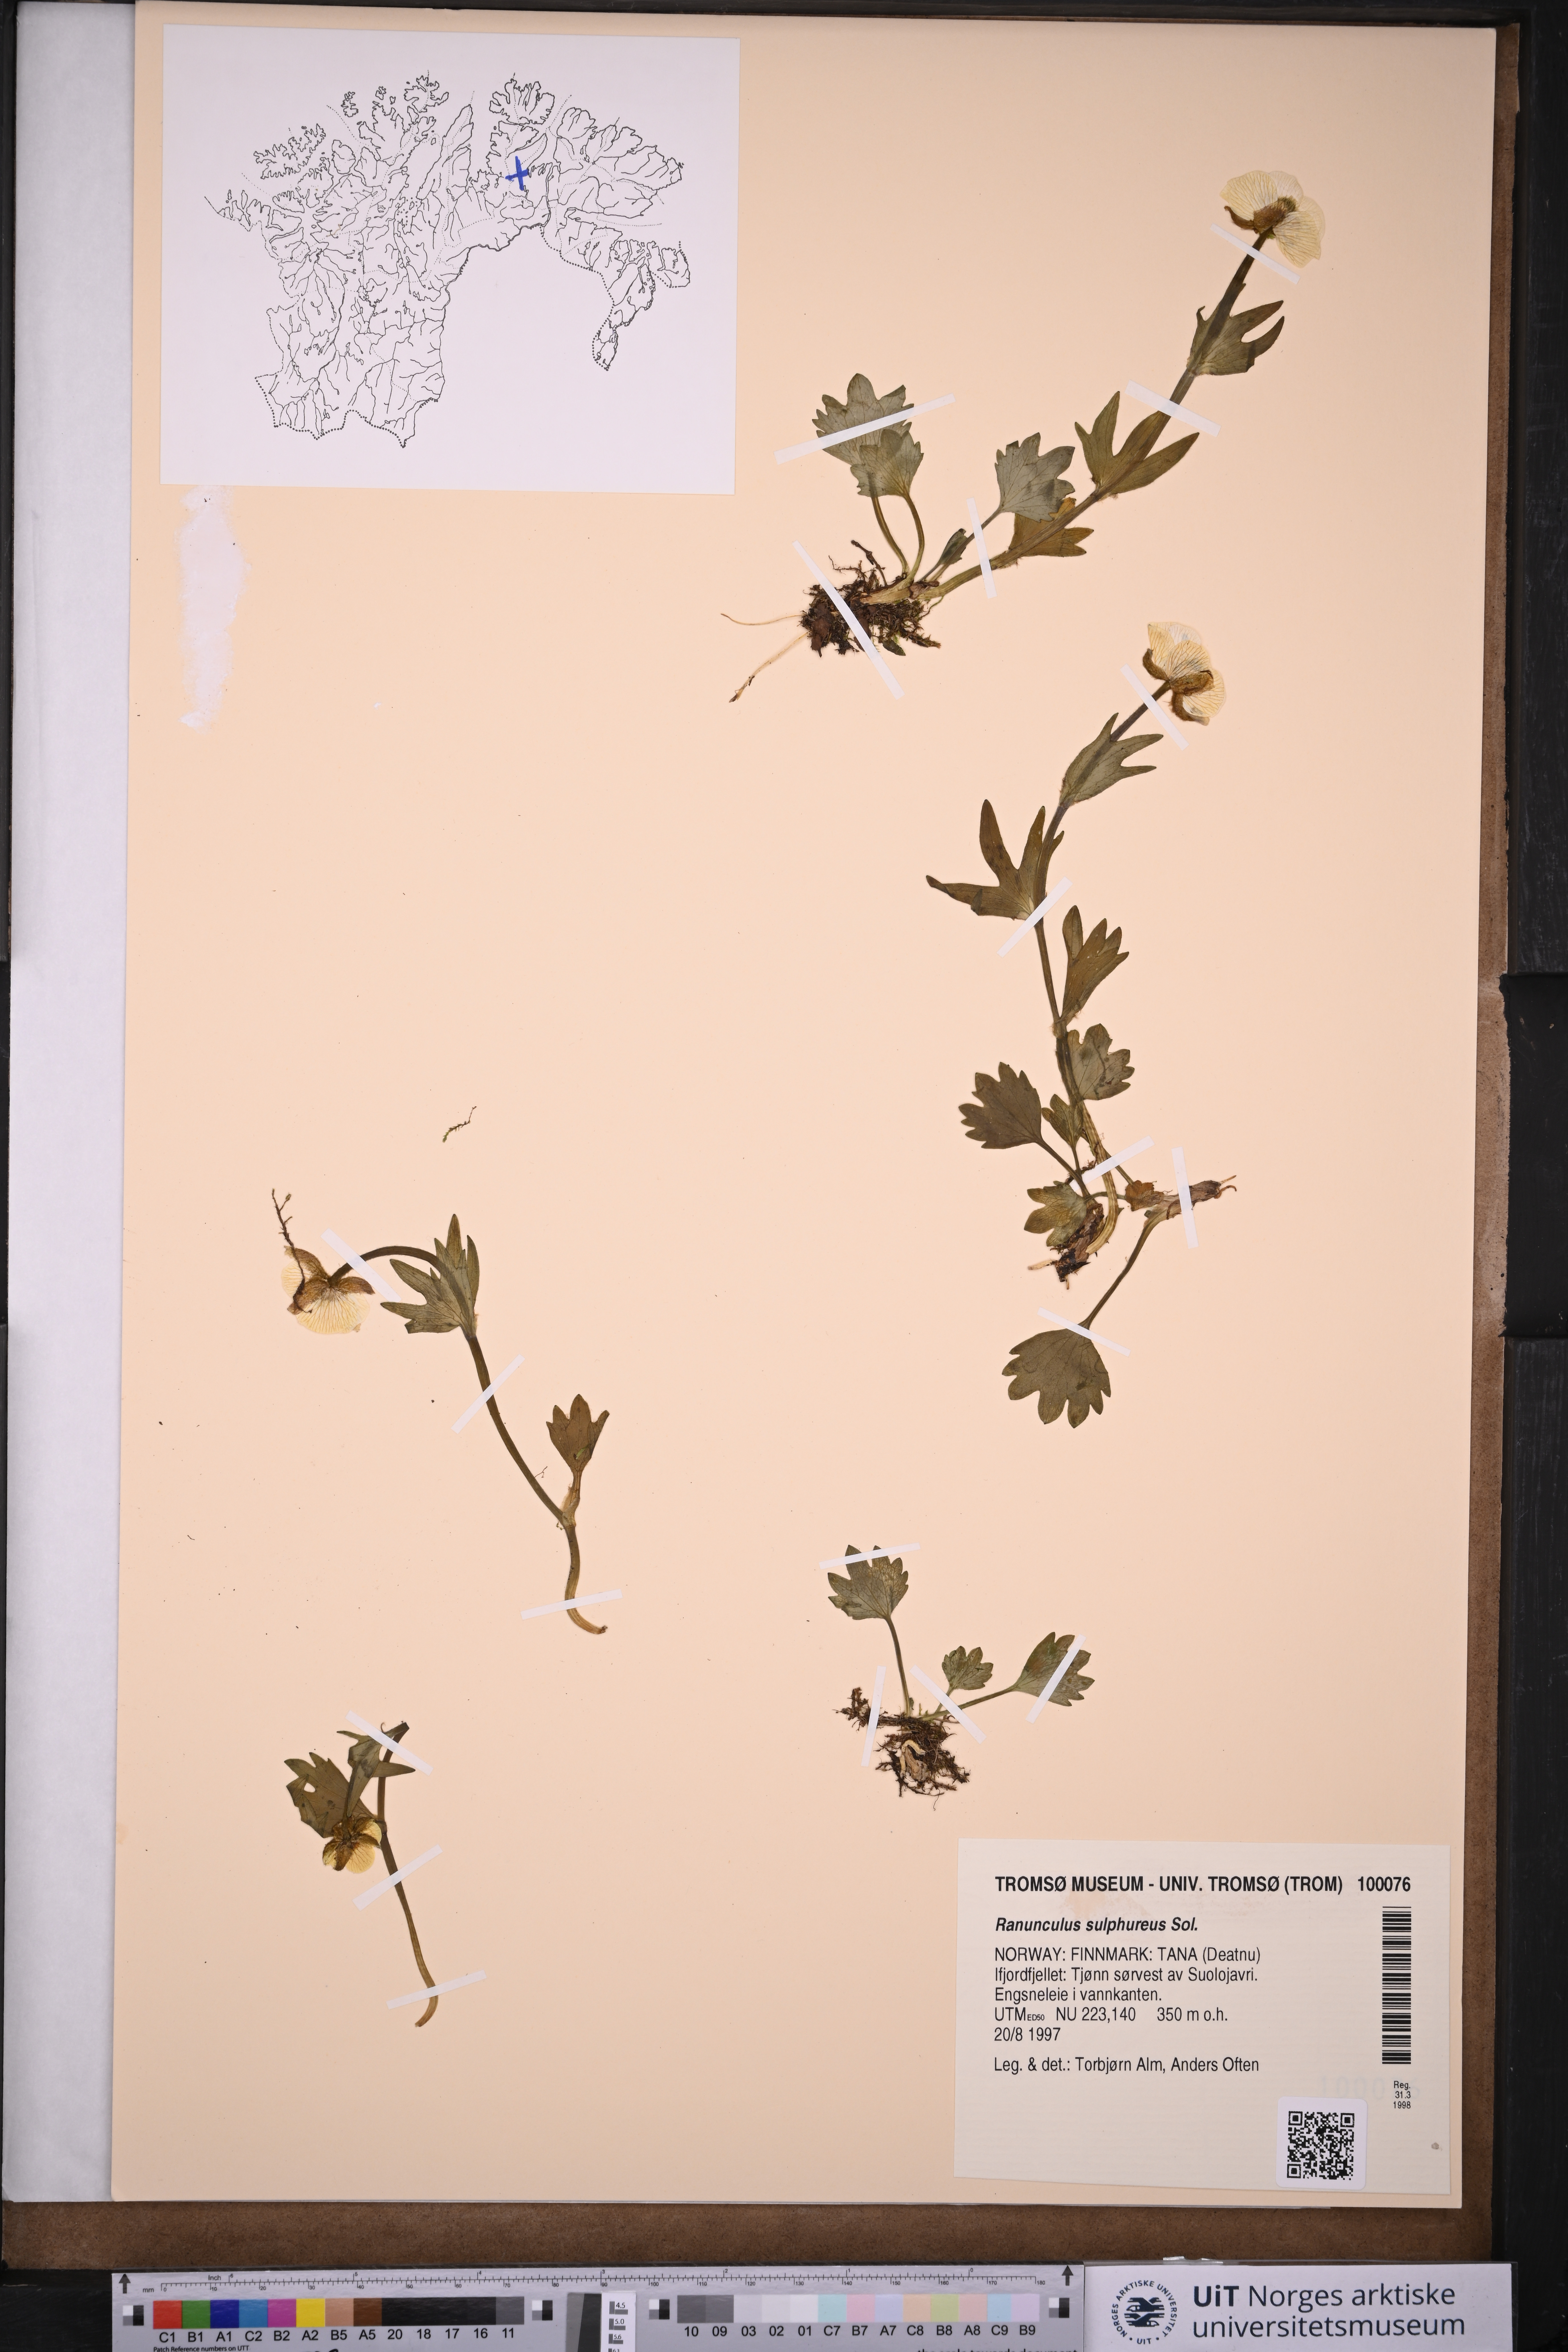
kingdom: Plantae
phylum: Tracheophyta
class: Magnoliopsida
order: Ranunculales
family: Ranunculaceae
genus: Ranunculus
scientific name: Ranunculus sulphureus
